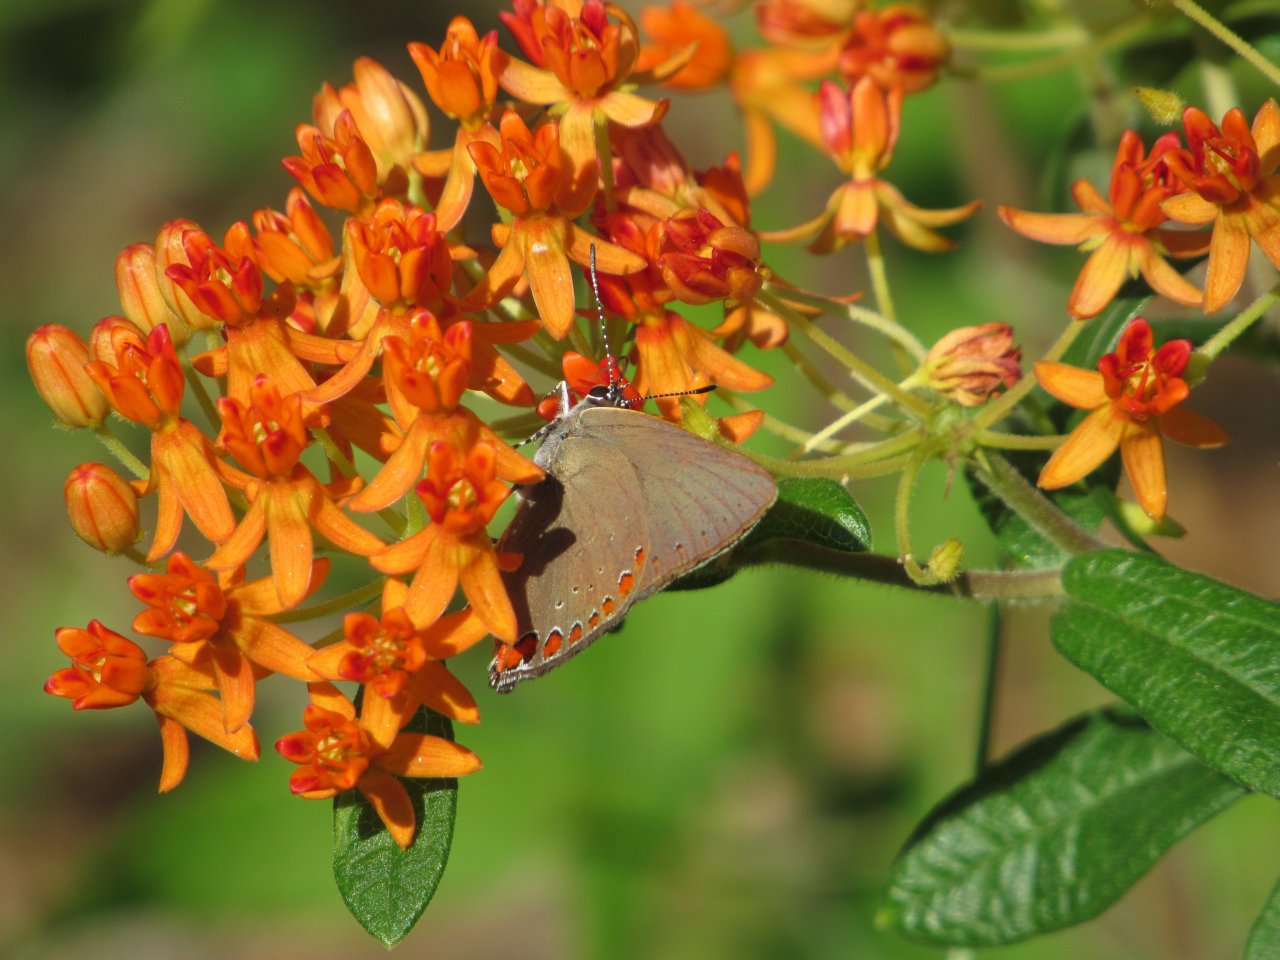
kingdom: Animalia
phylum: Arthropoda
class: Insecta
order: Lepidoptera
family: Lycaenidae
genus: Harkenclenus
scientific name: Harkenclenus titus
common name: Coral Hairstreak
